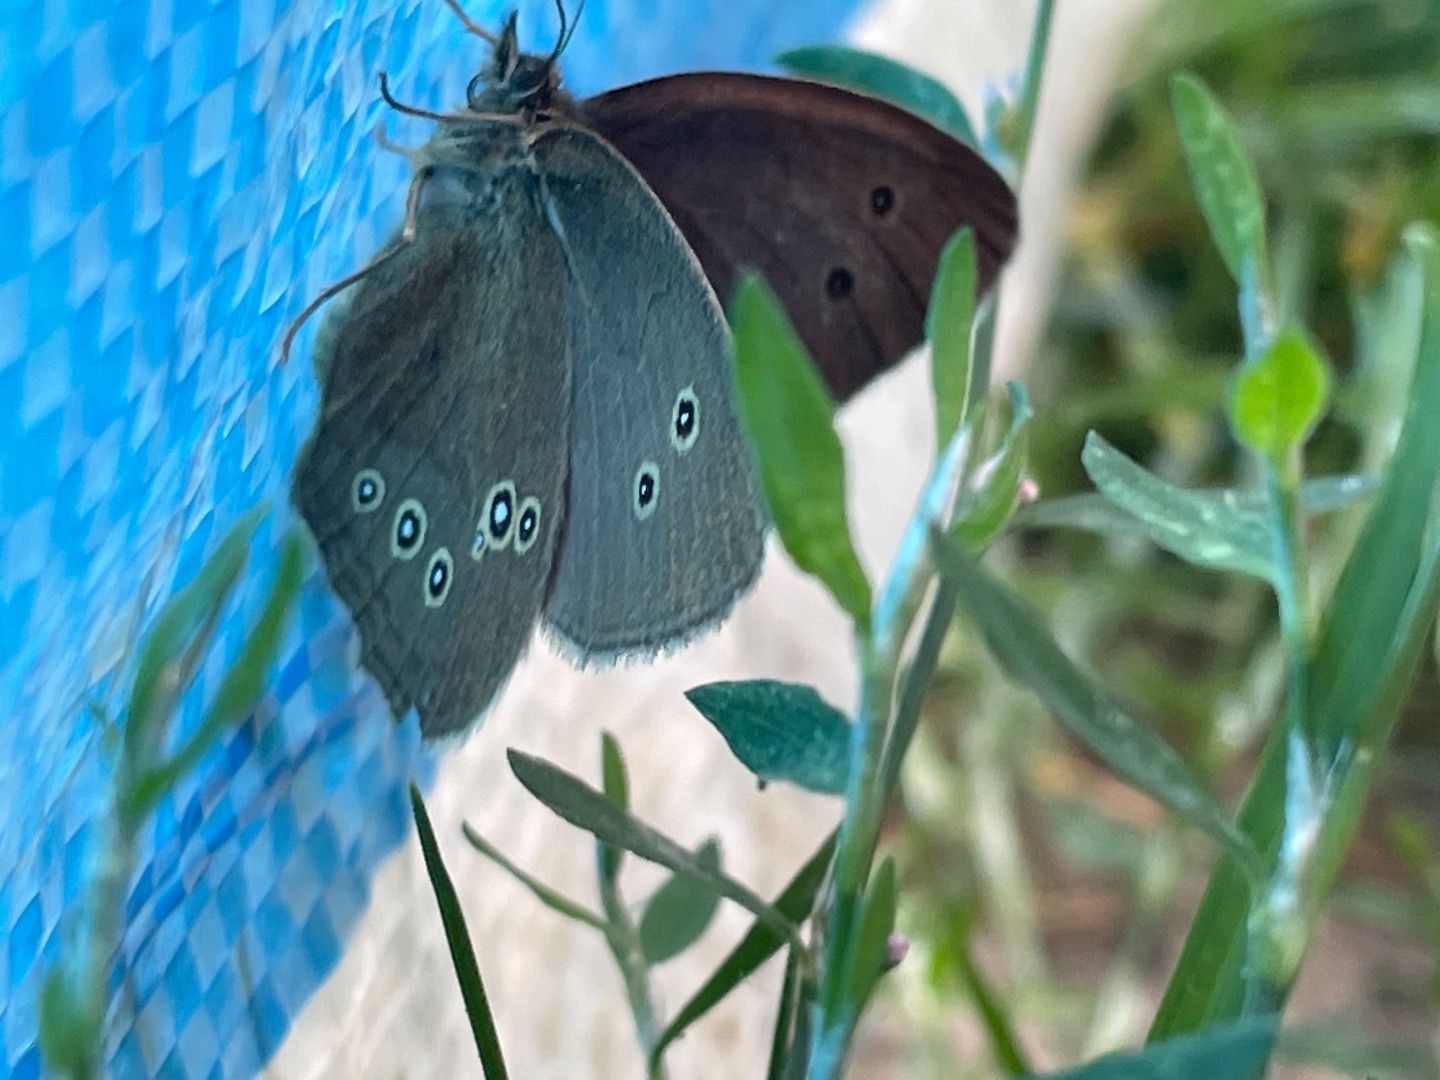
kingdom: Animalia
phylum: Arthropoda
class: Insecta
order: Lepidoptera
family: Nymphalidae
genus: Aphantopus
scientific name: Aphantopus hyperantus
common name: Engrandøje
